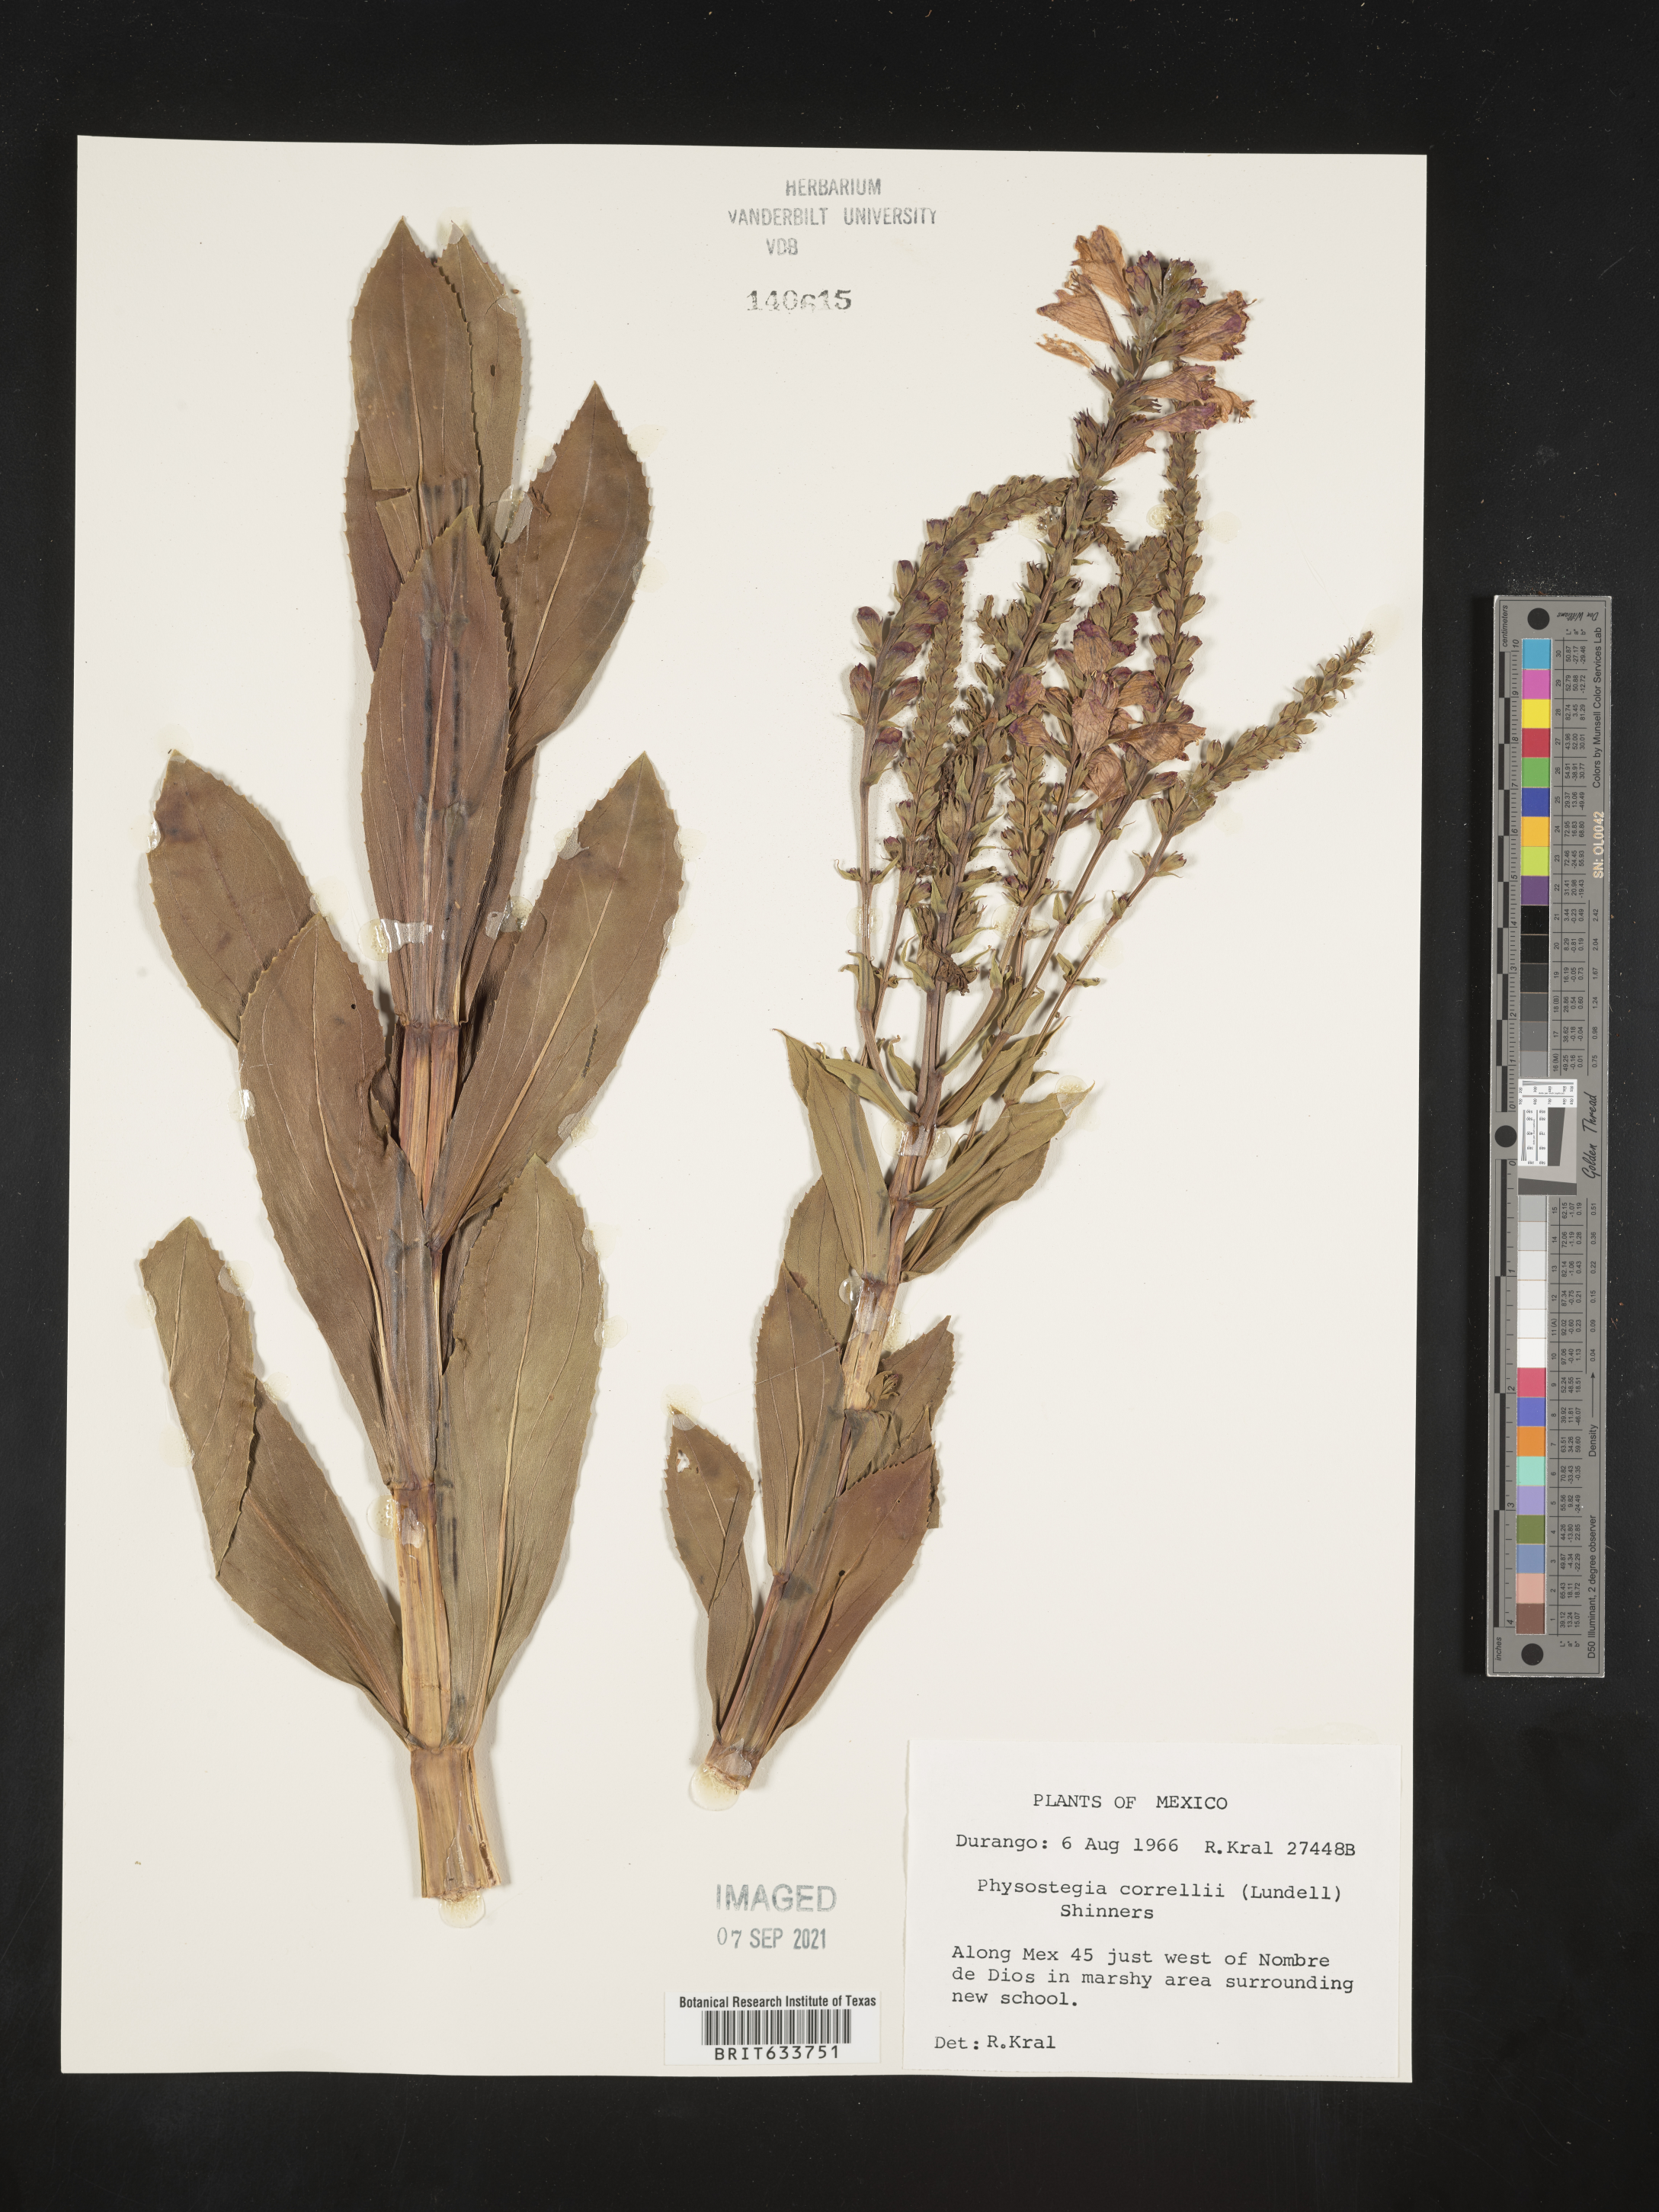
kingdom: Plantae
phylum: Tracheophyta
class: Magnoliopsida
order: Lamiales
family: Lamiaceae
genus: Physostegia
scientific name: Physostegia
